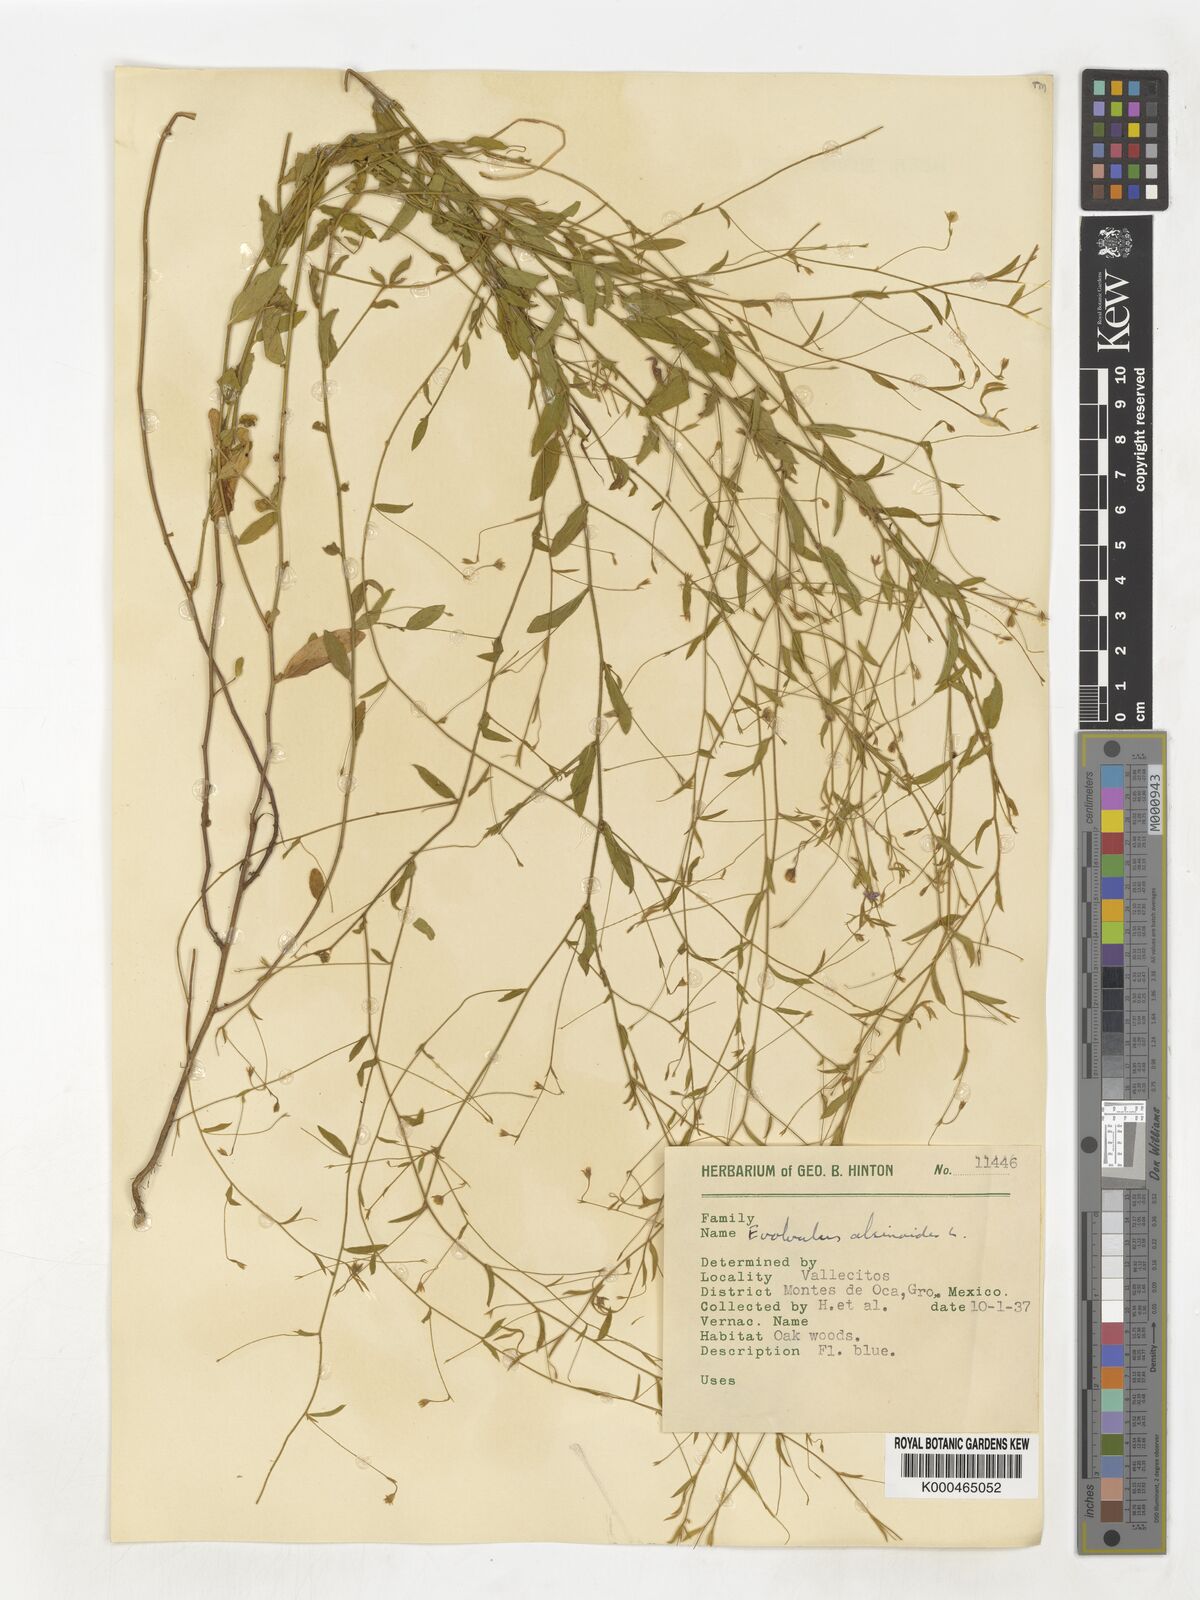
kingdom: Plantae
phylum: Tracheophyta
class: Magnoliopsida
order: Solanales
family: Convolvulaceae
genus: Evolvulus
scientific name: Evolvulus alsinoides
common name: Slender dwarf morning-glory
